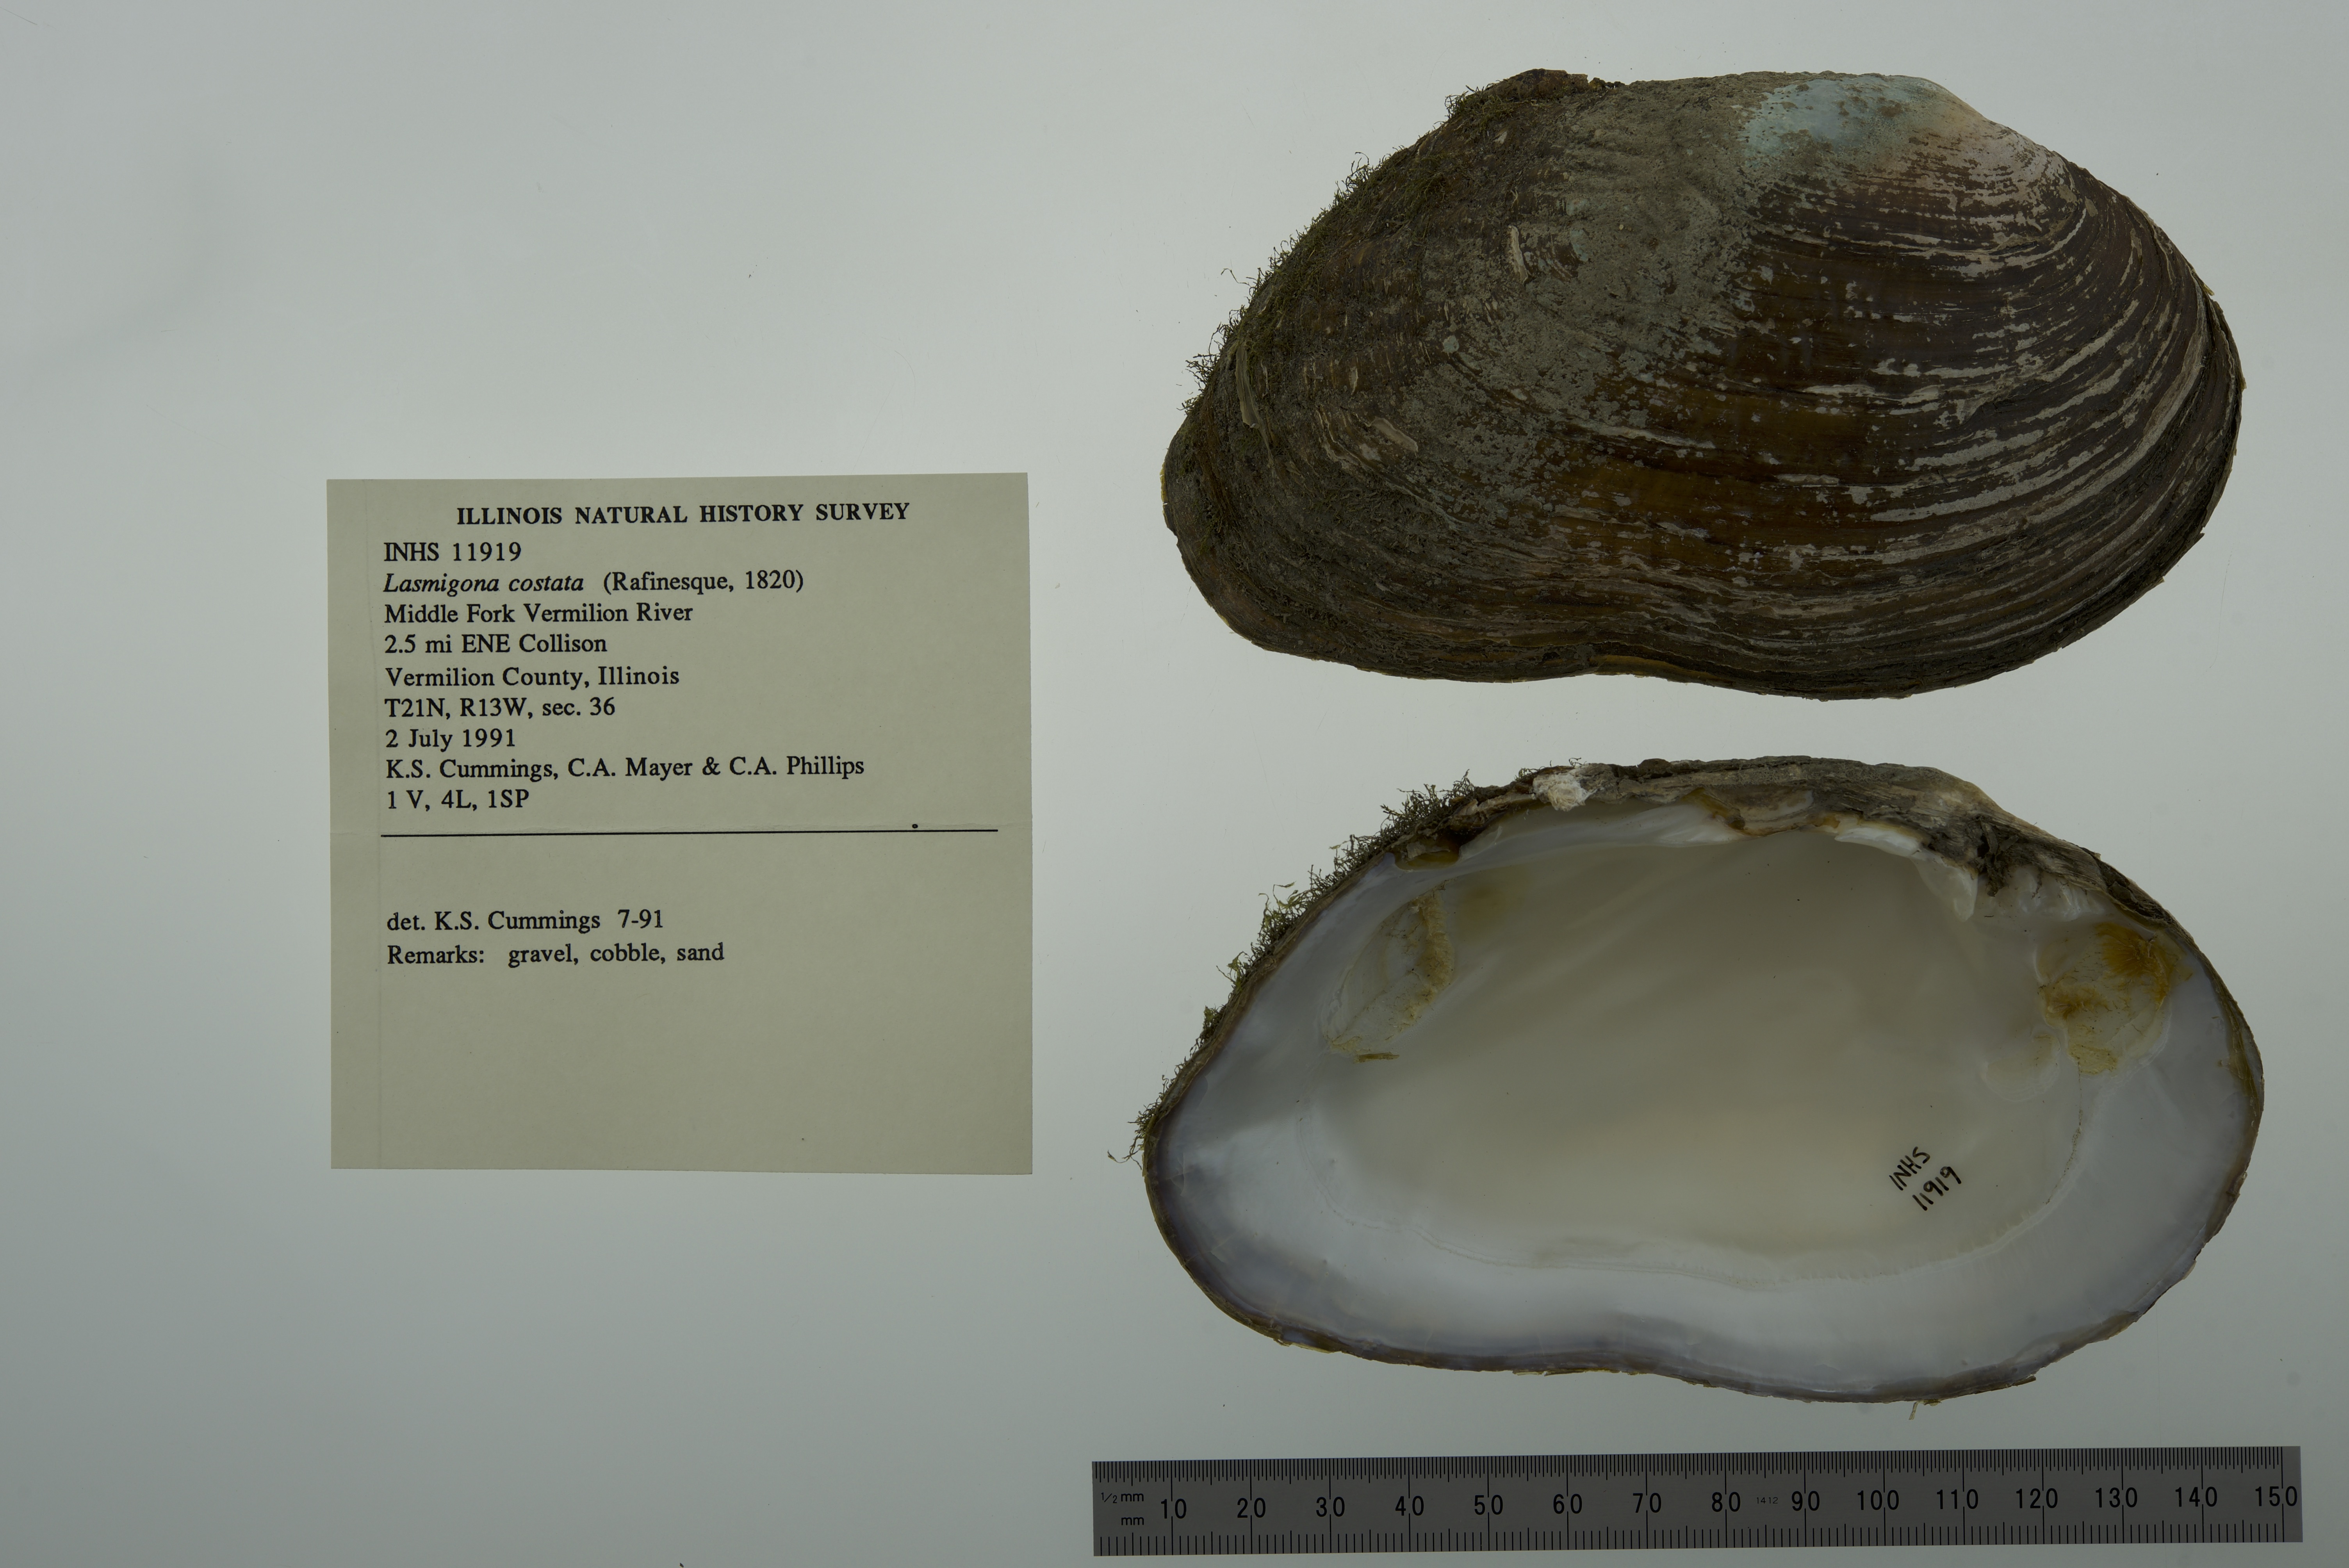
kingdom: Animalia
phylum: Mollusca
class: Bivalvia
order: Unionida
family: Unionidae
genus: Lasmigona
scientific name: Lasmigona costata
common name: Flutedshell
